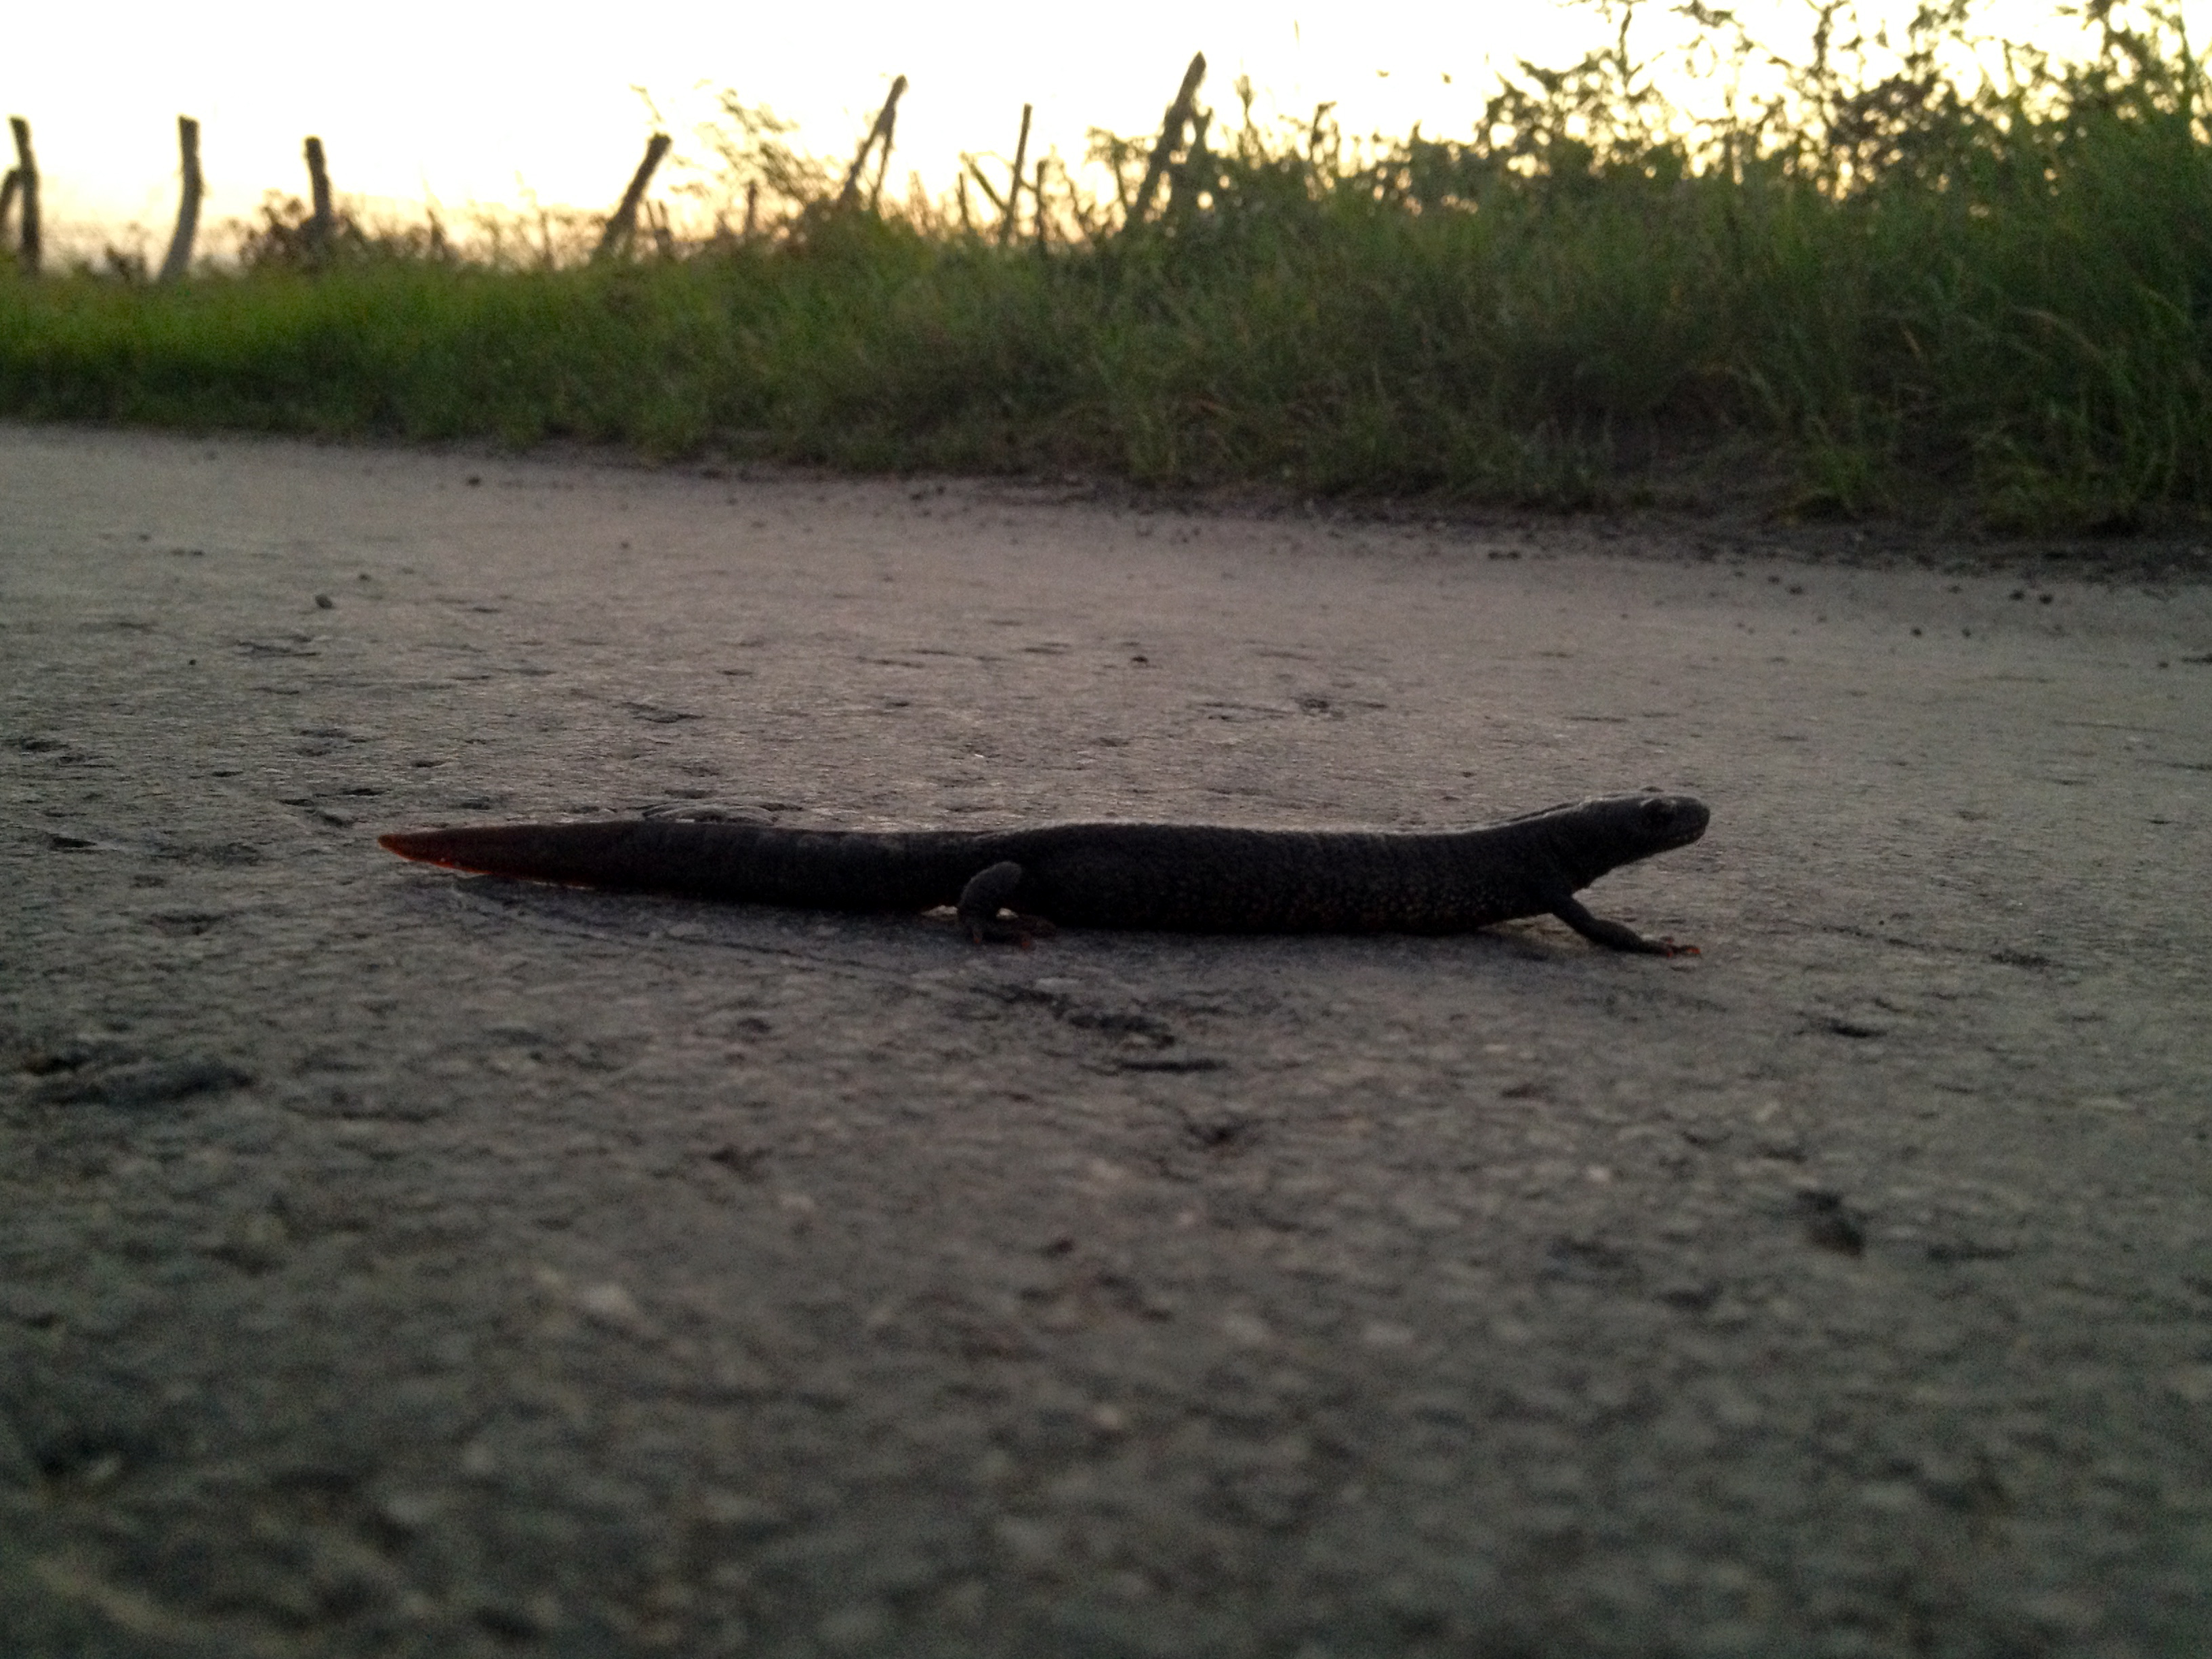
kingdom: Animalia
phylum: Chordata
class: Amphibia
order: Caudata
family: Salamandridae
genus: Triturus
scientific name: Triturus dobrogicus
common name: Danube crested newt
